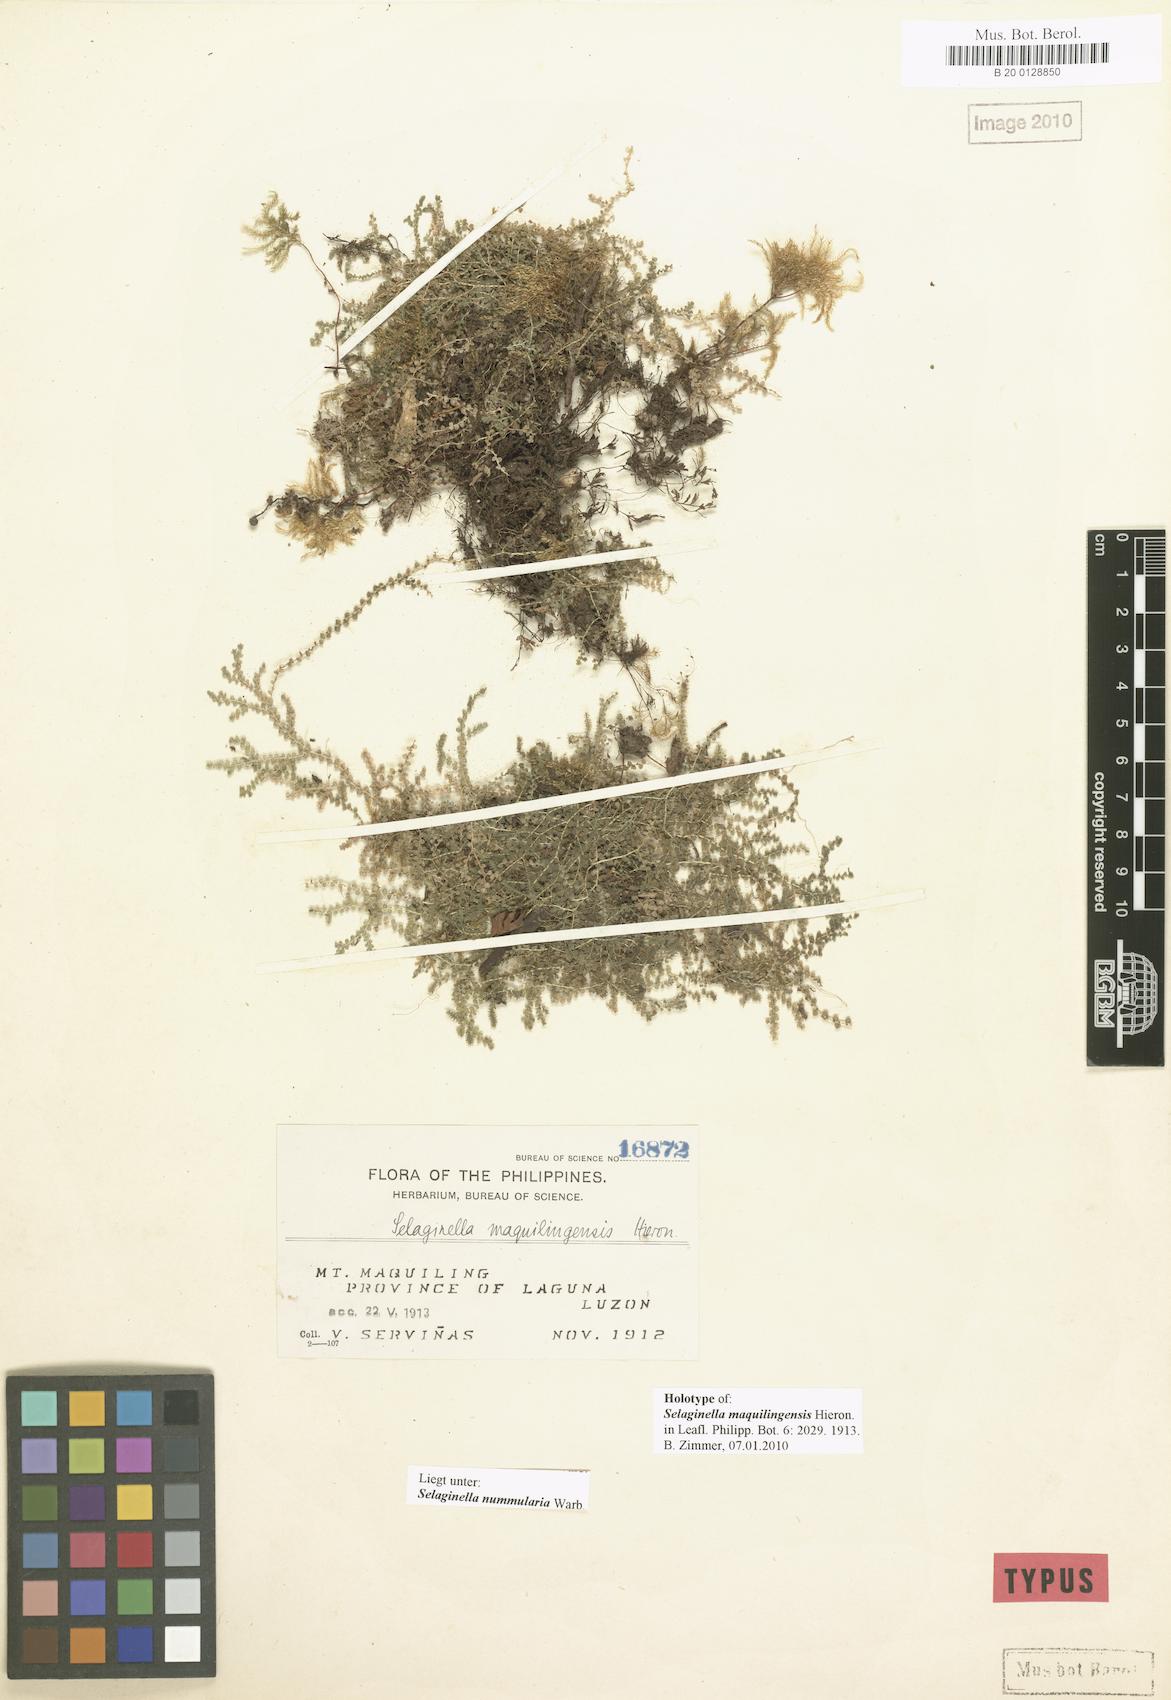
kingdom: Plantae
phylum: Tracheophyta
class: Lycopodiopsida
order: Selaginellales
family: Selaginellaceae
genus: Selaginella
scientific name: Selaginella nummularia
